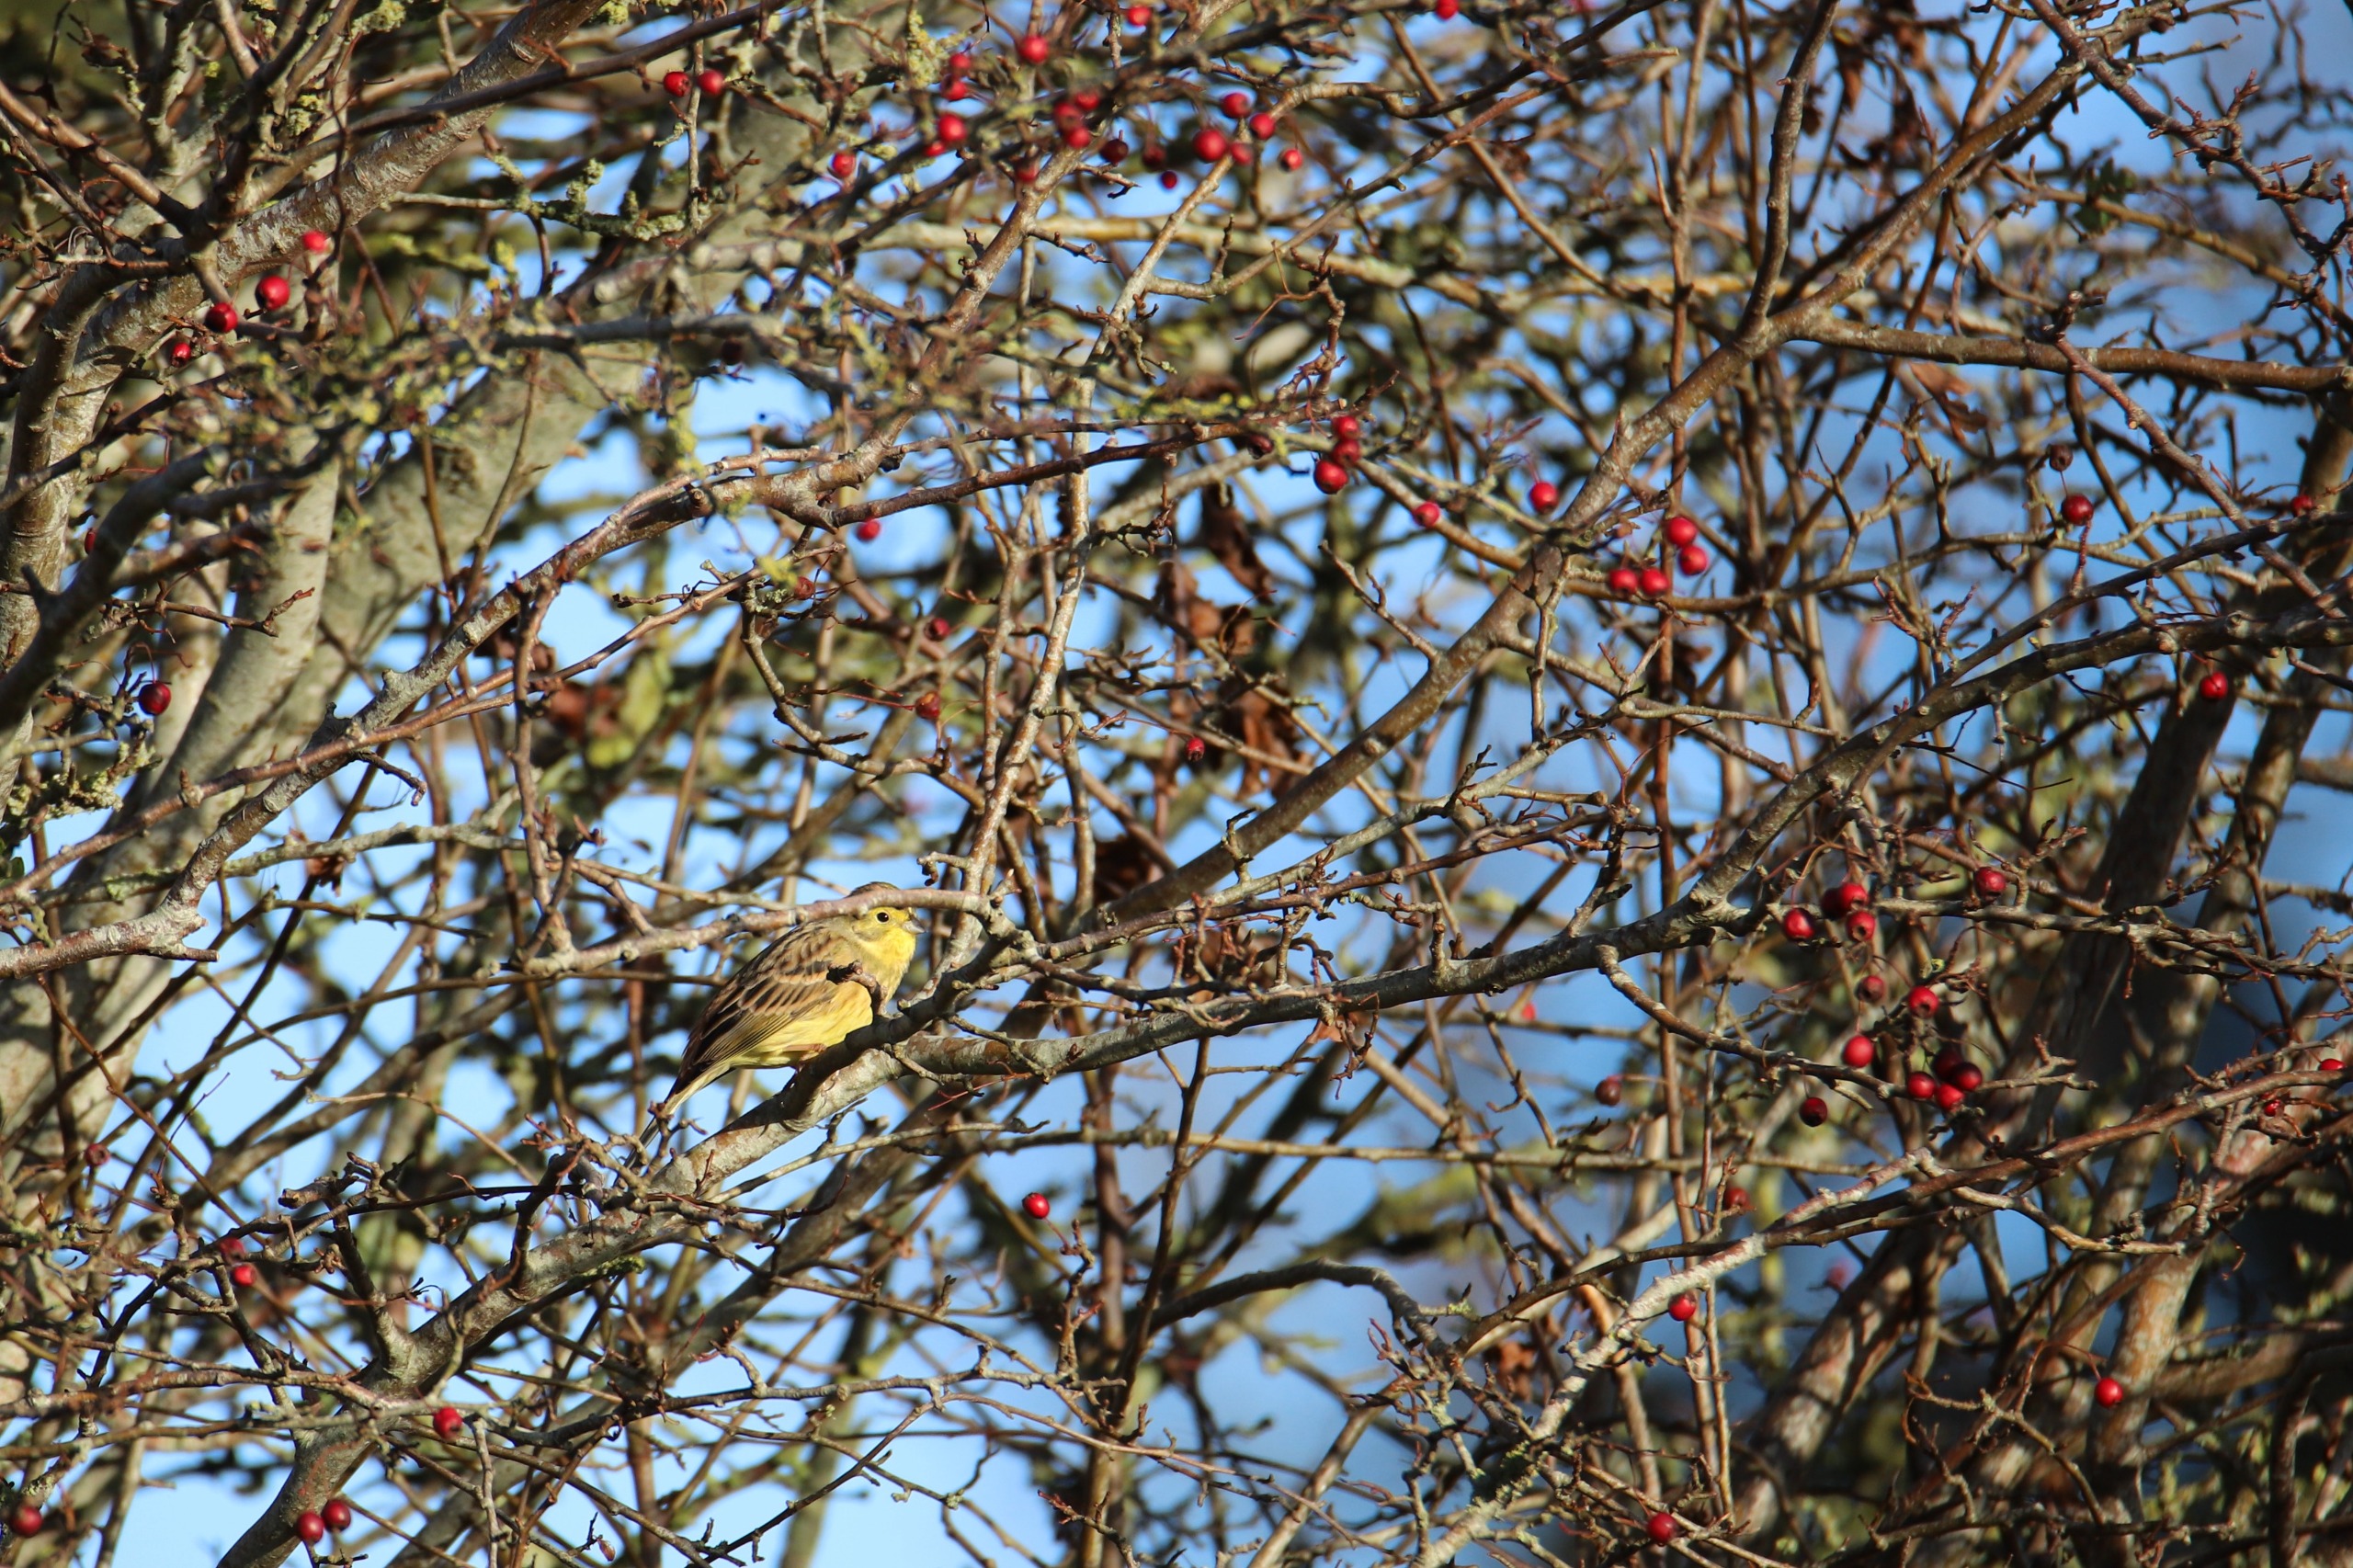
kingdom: Animalia
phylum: Chordata
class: Aves
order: Passeriformes
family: Emberizidae
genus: Emberiza
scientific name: Emberiza citrinella
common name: Gulspurv
